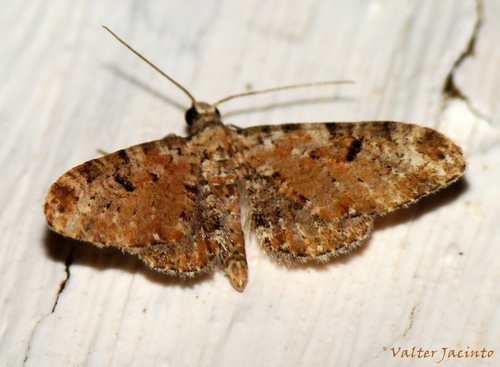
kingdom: Animalia
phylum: Arthropoda
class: Insecta
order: Lepidoptera
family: Geometridae
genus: Eupithecia
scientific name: Eupithecia pantellata
